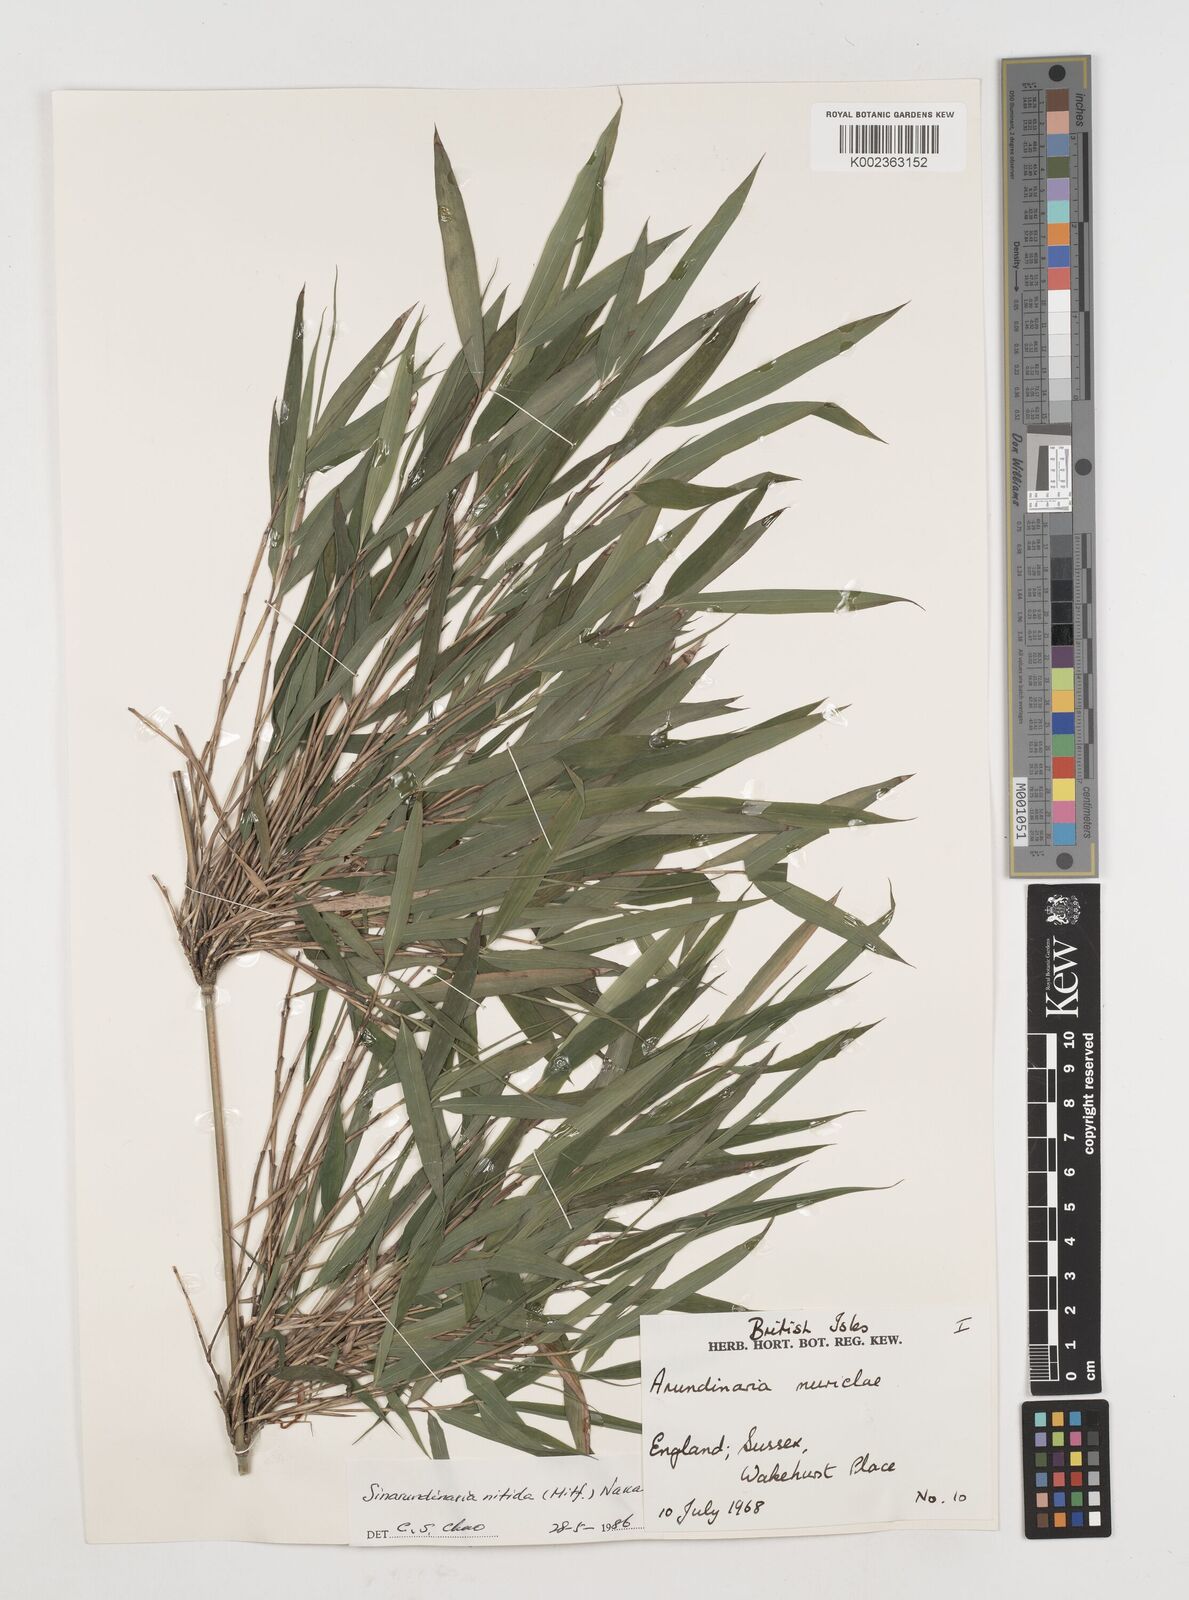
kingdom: Plantae
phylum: Tracheophyta
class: Liliopsida
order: Poales
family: Poaceae
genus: Fargesia
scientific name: Fargesia nitida ex
